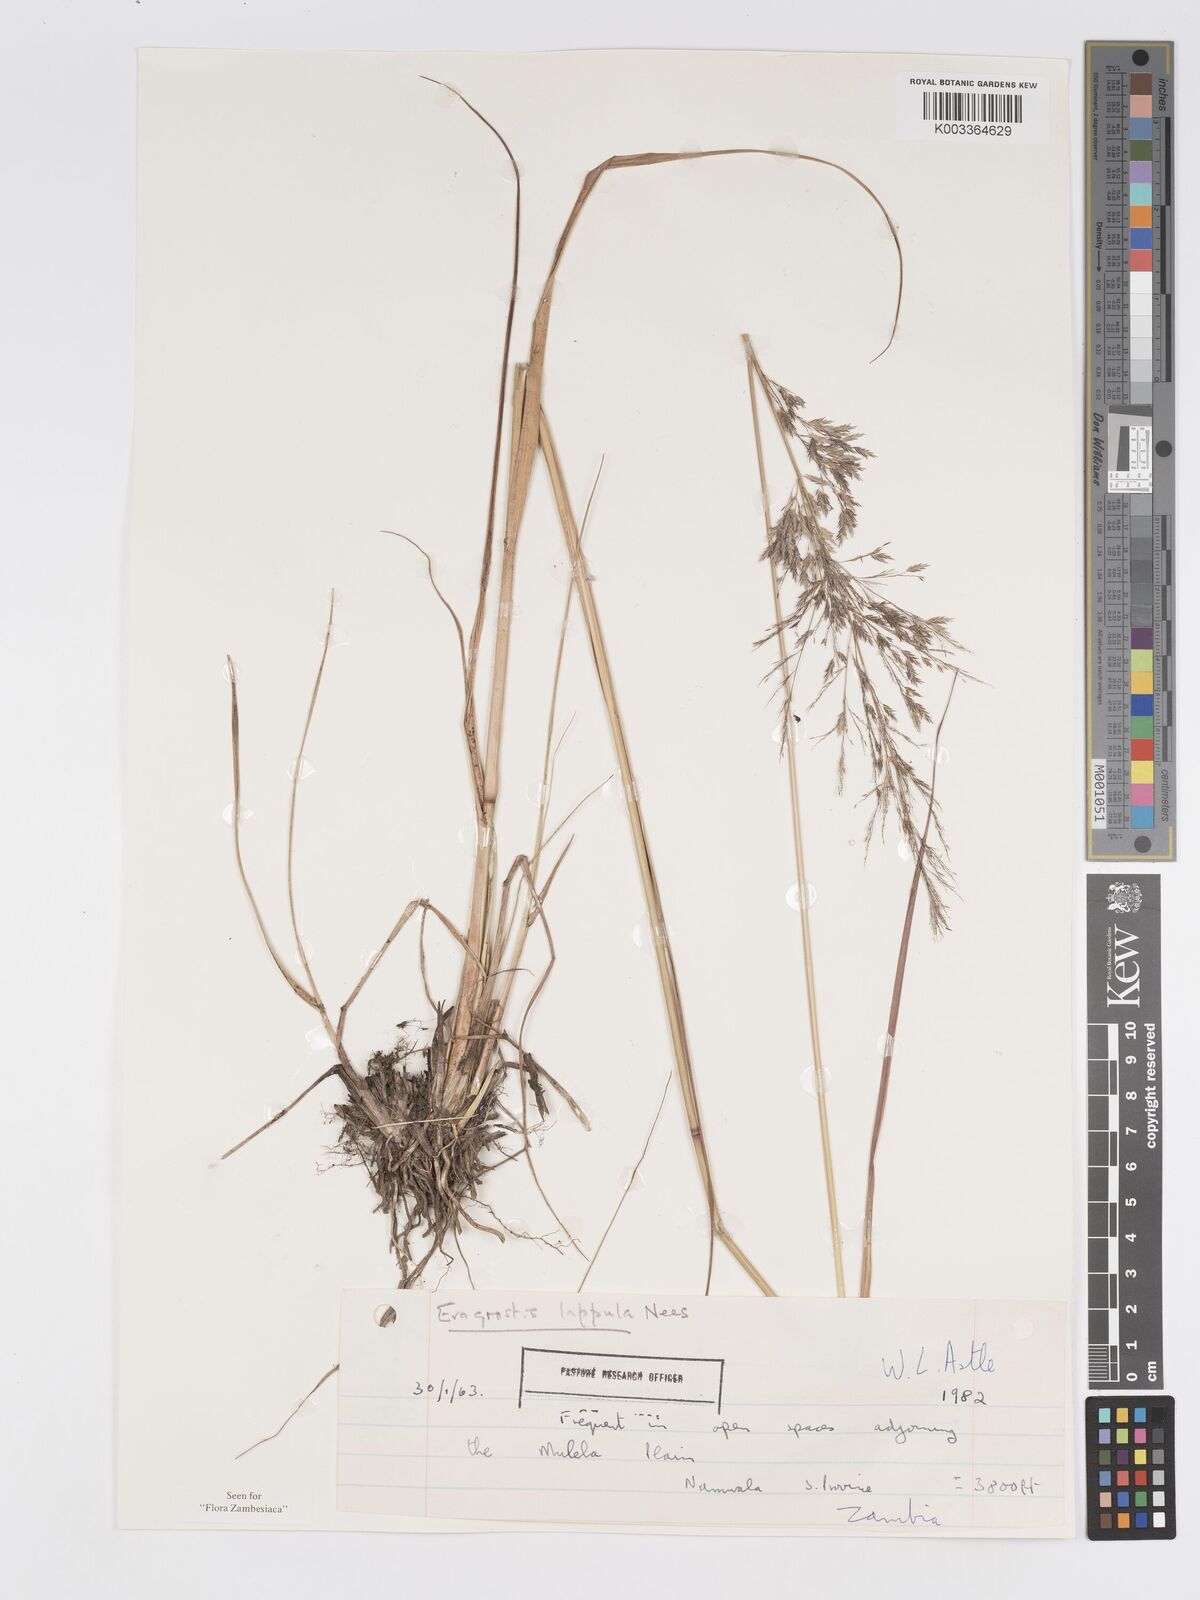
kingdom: Plantae
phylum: Tracheophyta
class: Liliopsida
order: Poales
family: Poaceae
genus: Eragrostis
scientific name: Eragrostis lappula
